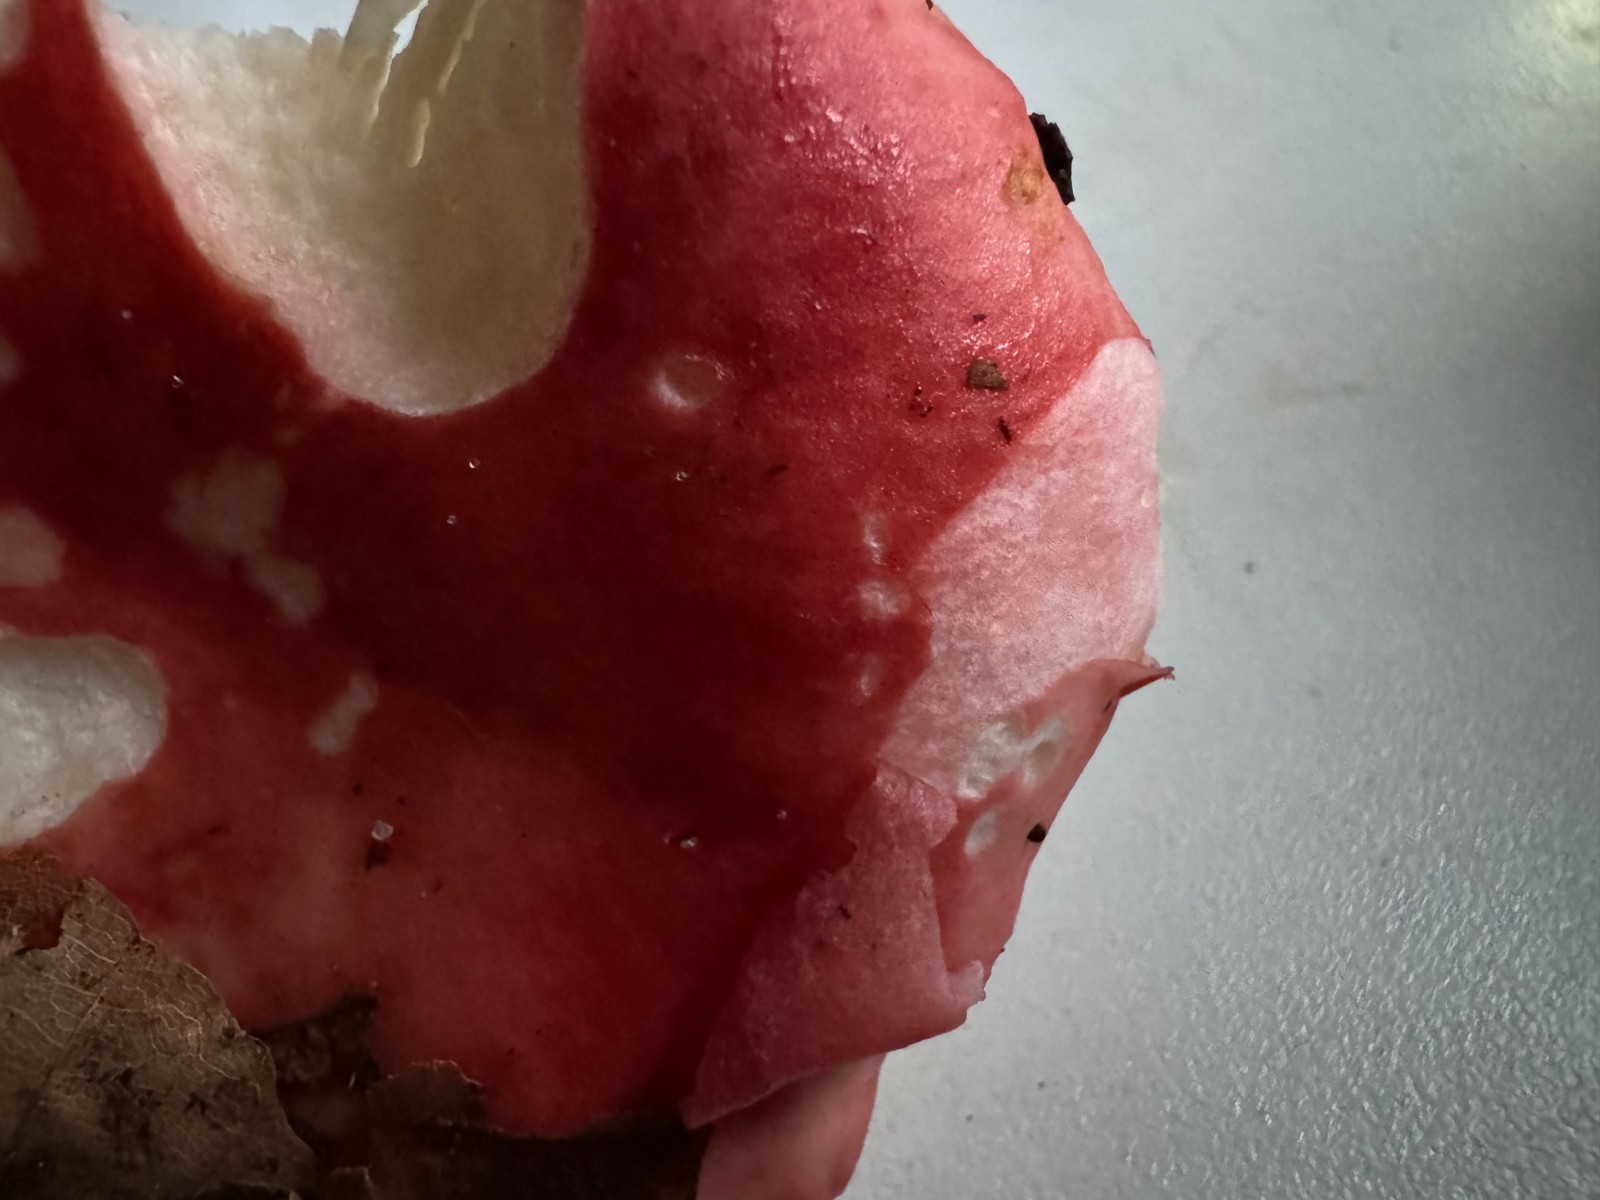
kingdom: Fungi
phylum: Basidiomycota
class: Agaricomycetes
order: Russulales
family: Russulaceae
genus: Russula
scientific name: Russula nobilis
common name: lille gift-skørhat
